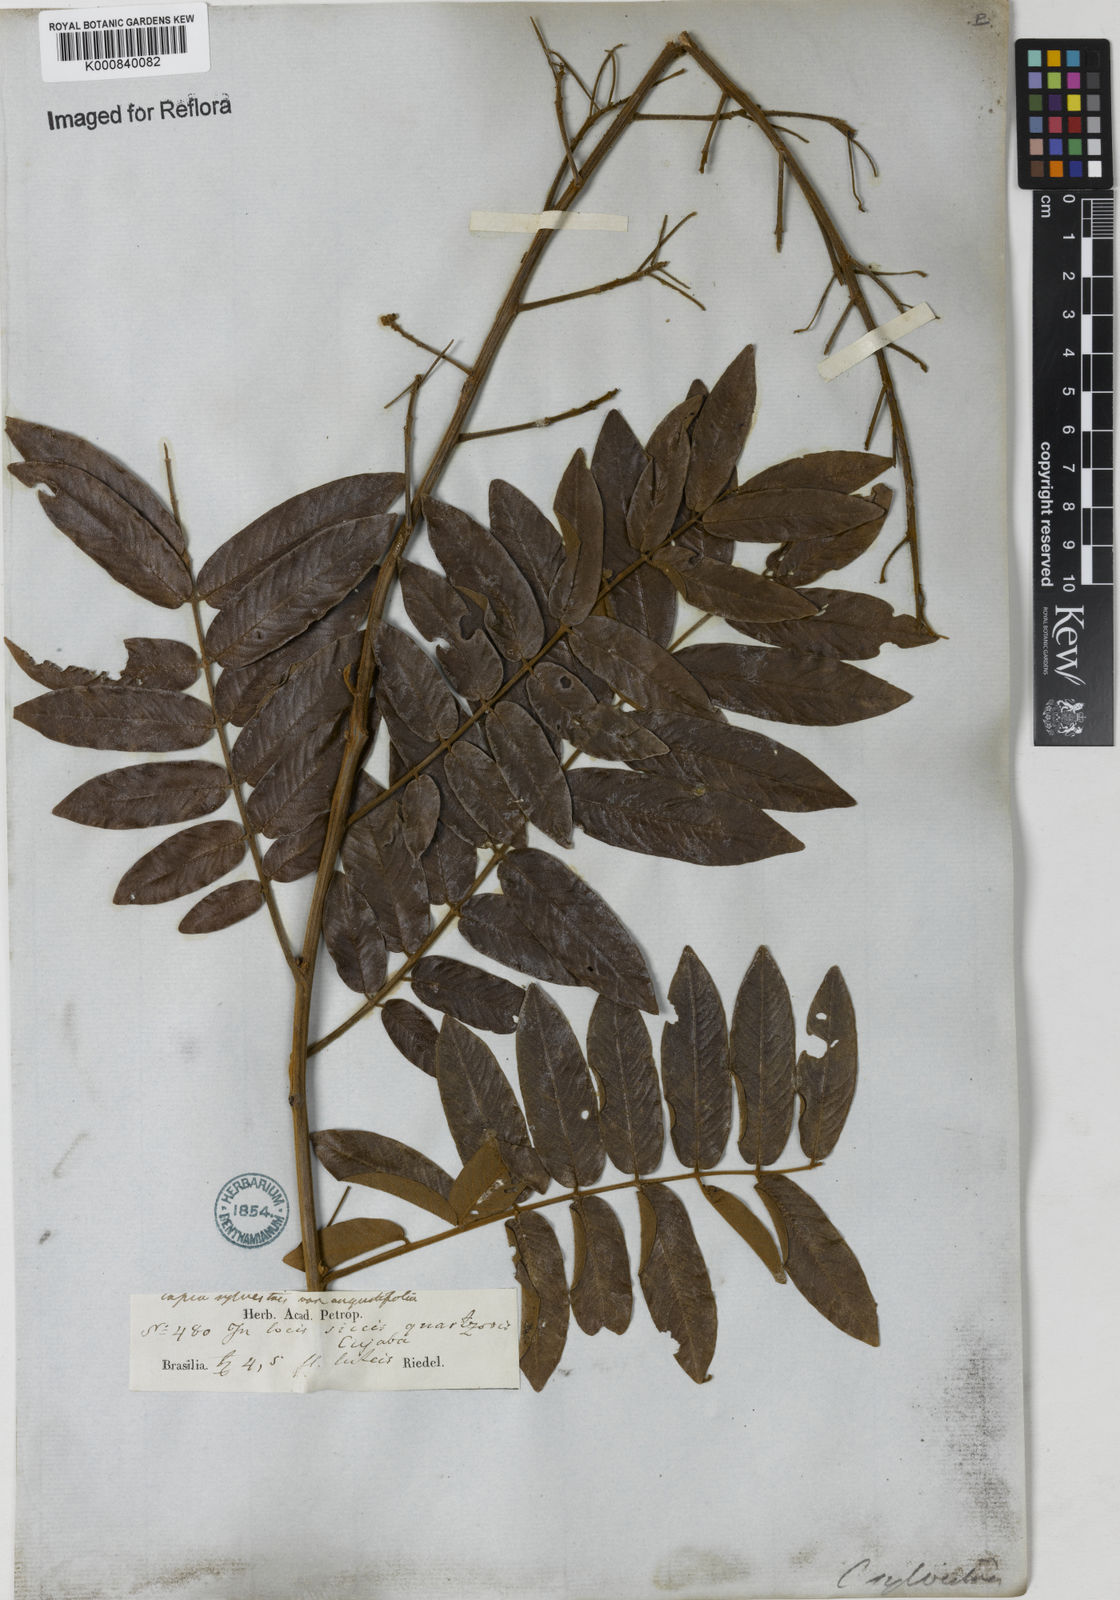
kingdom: Plantae
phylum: Tracheophyta
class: Magnoliopsida
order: Fabales
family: Fabaceae
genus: Senna
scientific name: Senna silvestris
